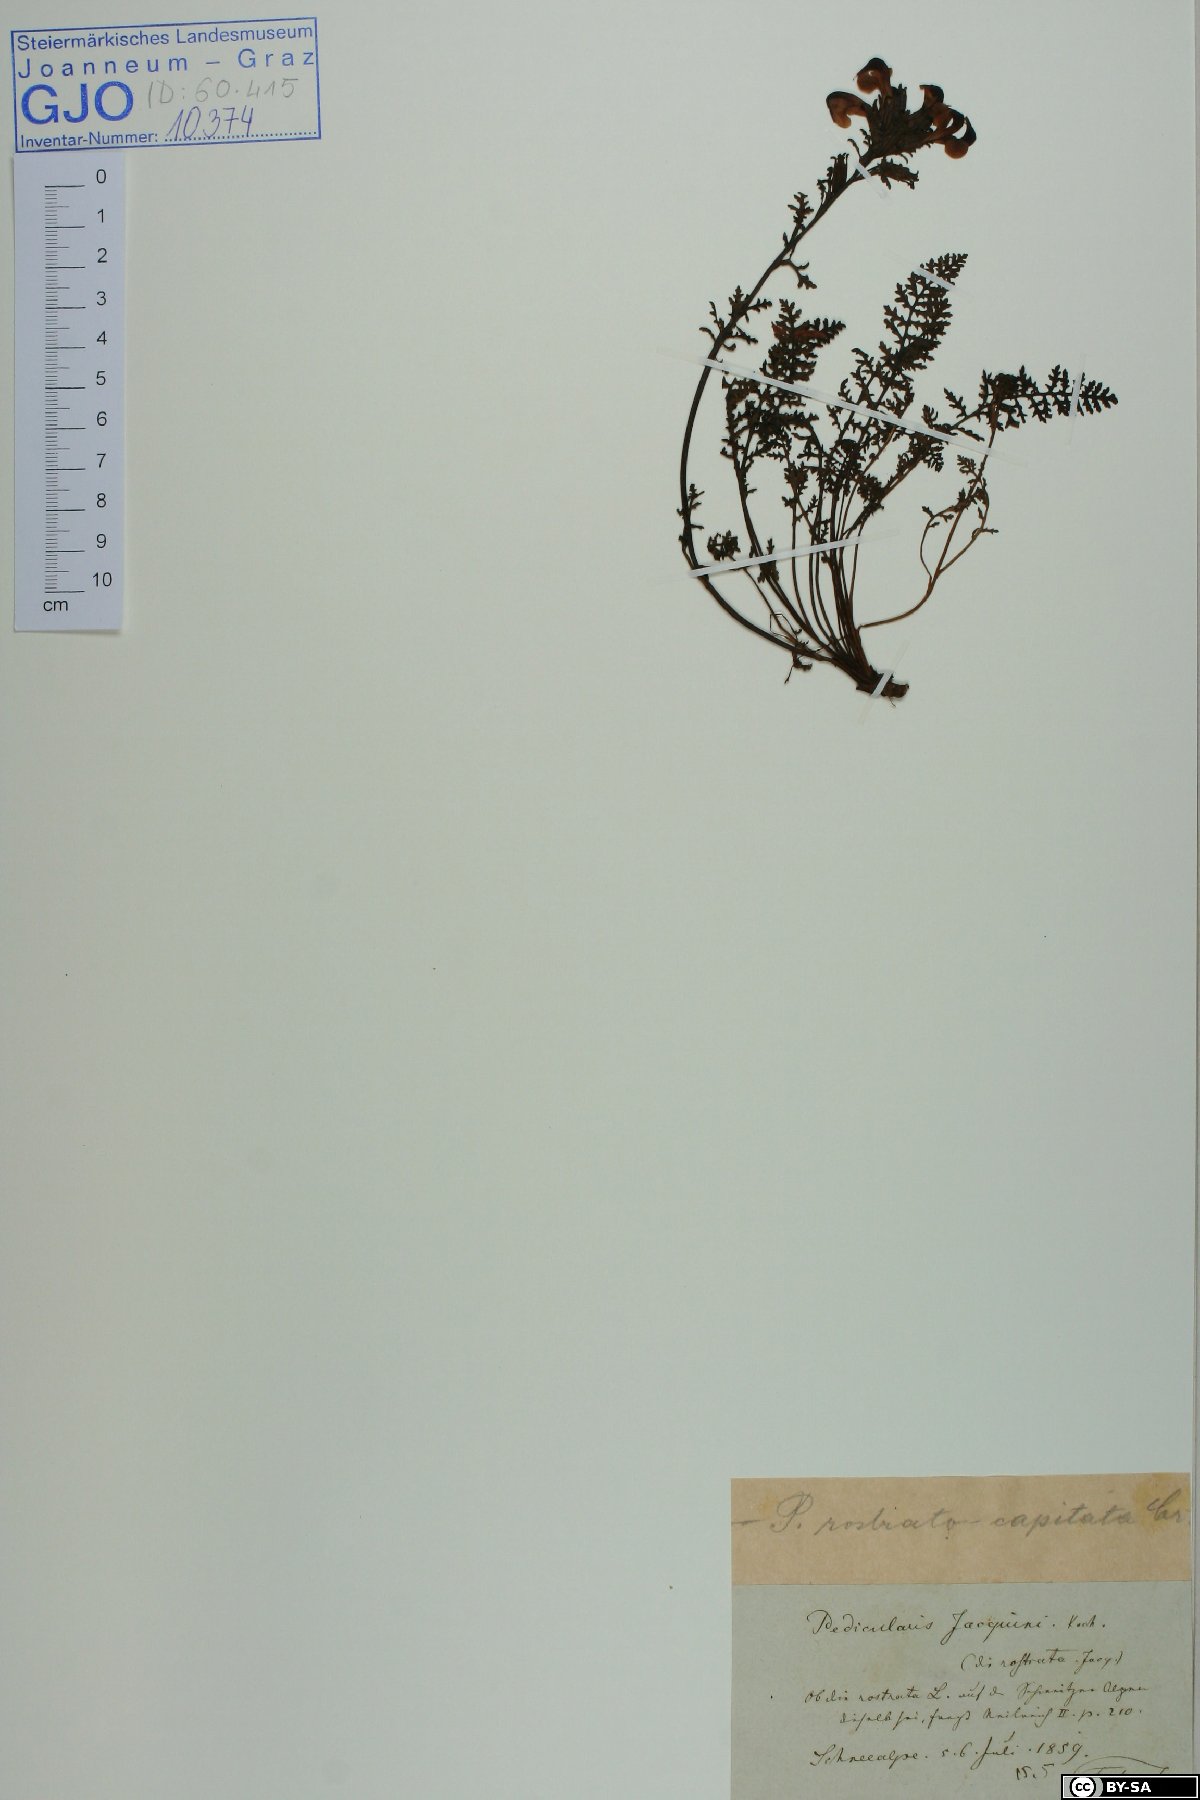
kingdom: Plantae
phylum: Tracheophyta
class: Magnoliopsida
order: Lamiales
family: Orobanchaceae
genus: Pedicularis
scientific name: Pedicularis rostratocapitata
